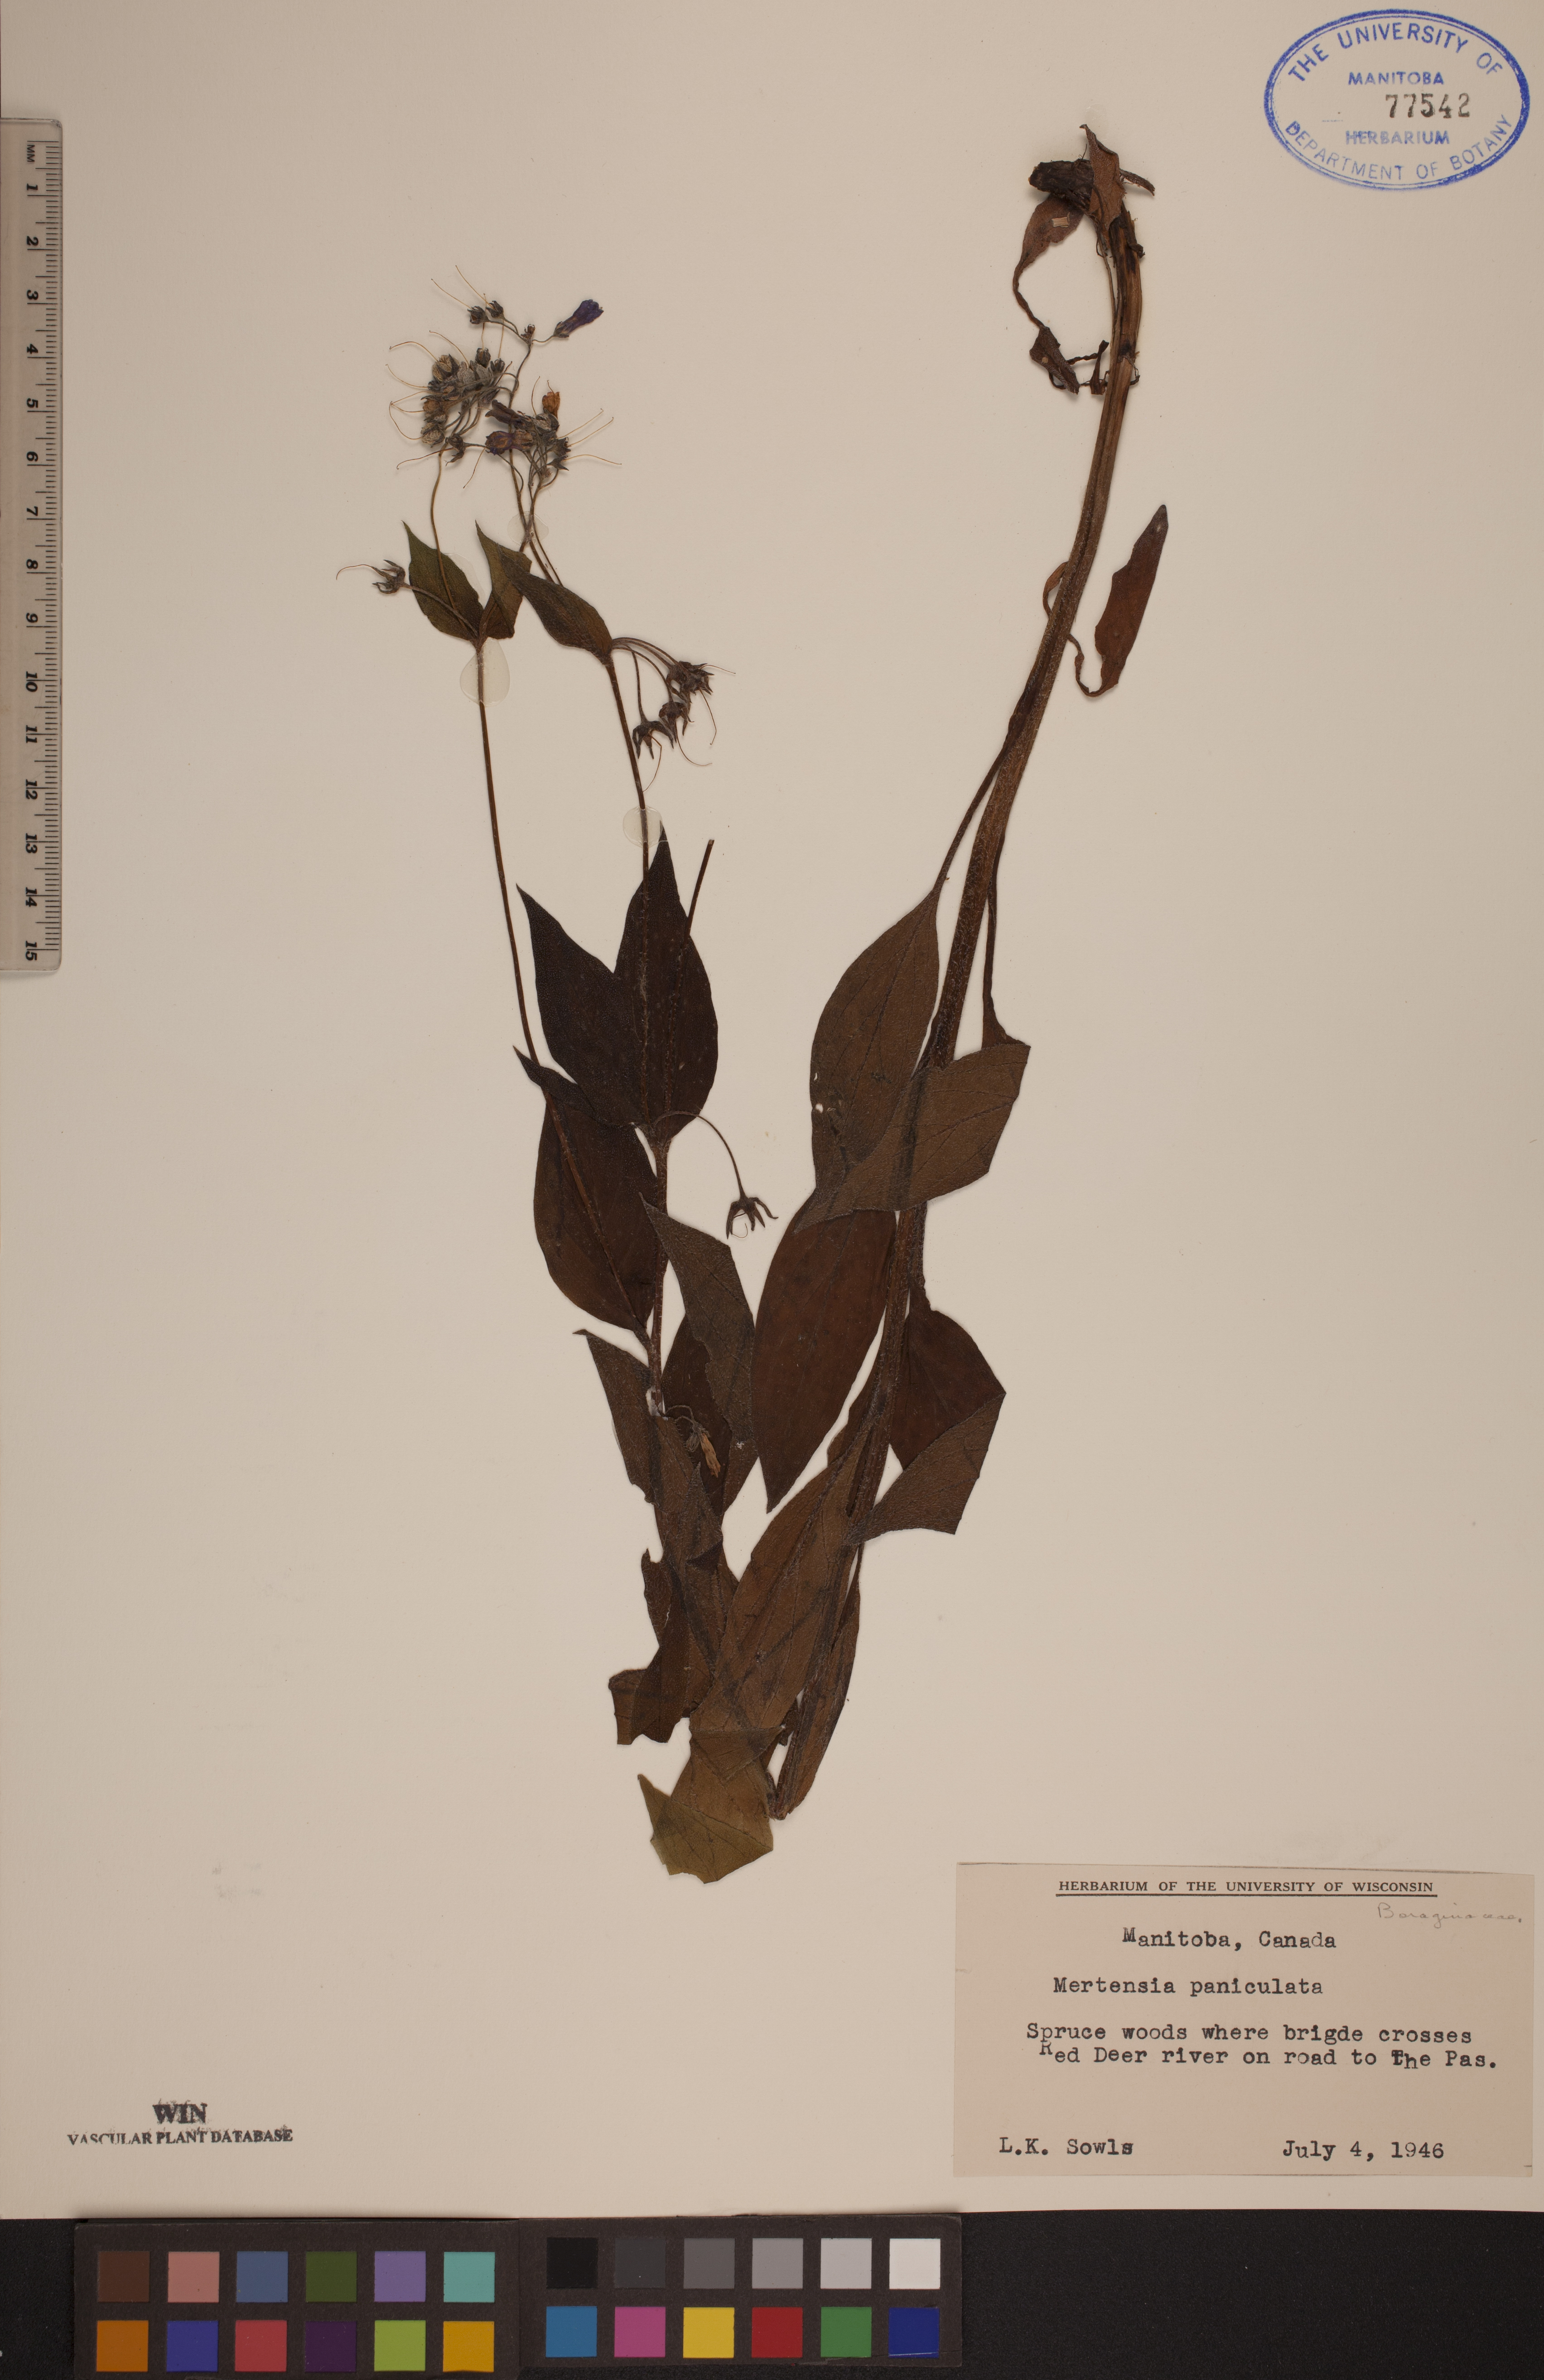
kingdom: Plantae
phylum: Tracheophyta
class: Magnoliopsida
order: Boraginales
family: Boraginaceae
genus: Mertensia
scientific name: Mertensia paniculata
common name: Panicled bluebells
